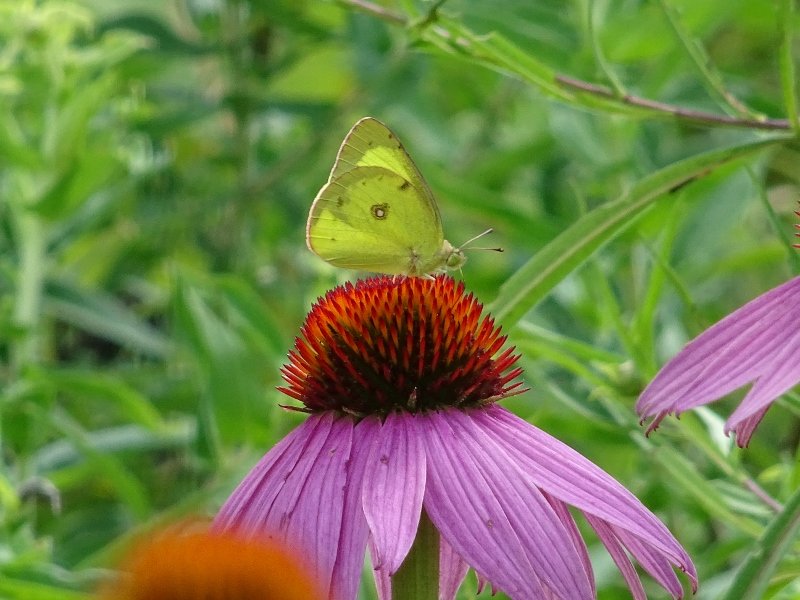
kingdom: Animalia
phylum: Arthropoda
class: Insecta
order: Lepidoptera
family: Pieridae
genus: Colias
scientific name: Colias philodice
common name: Clouded Sulphur
